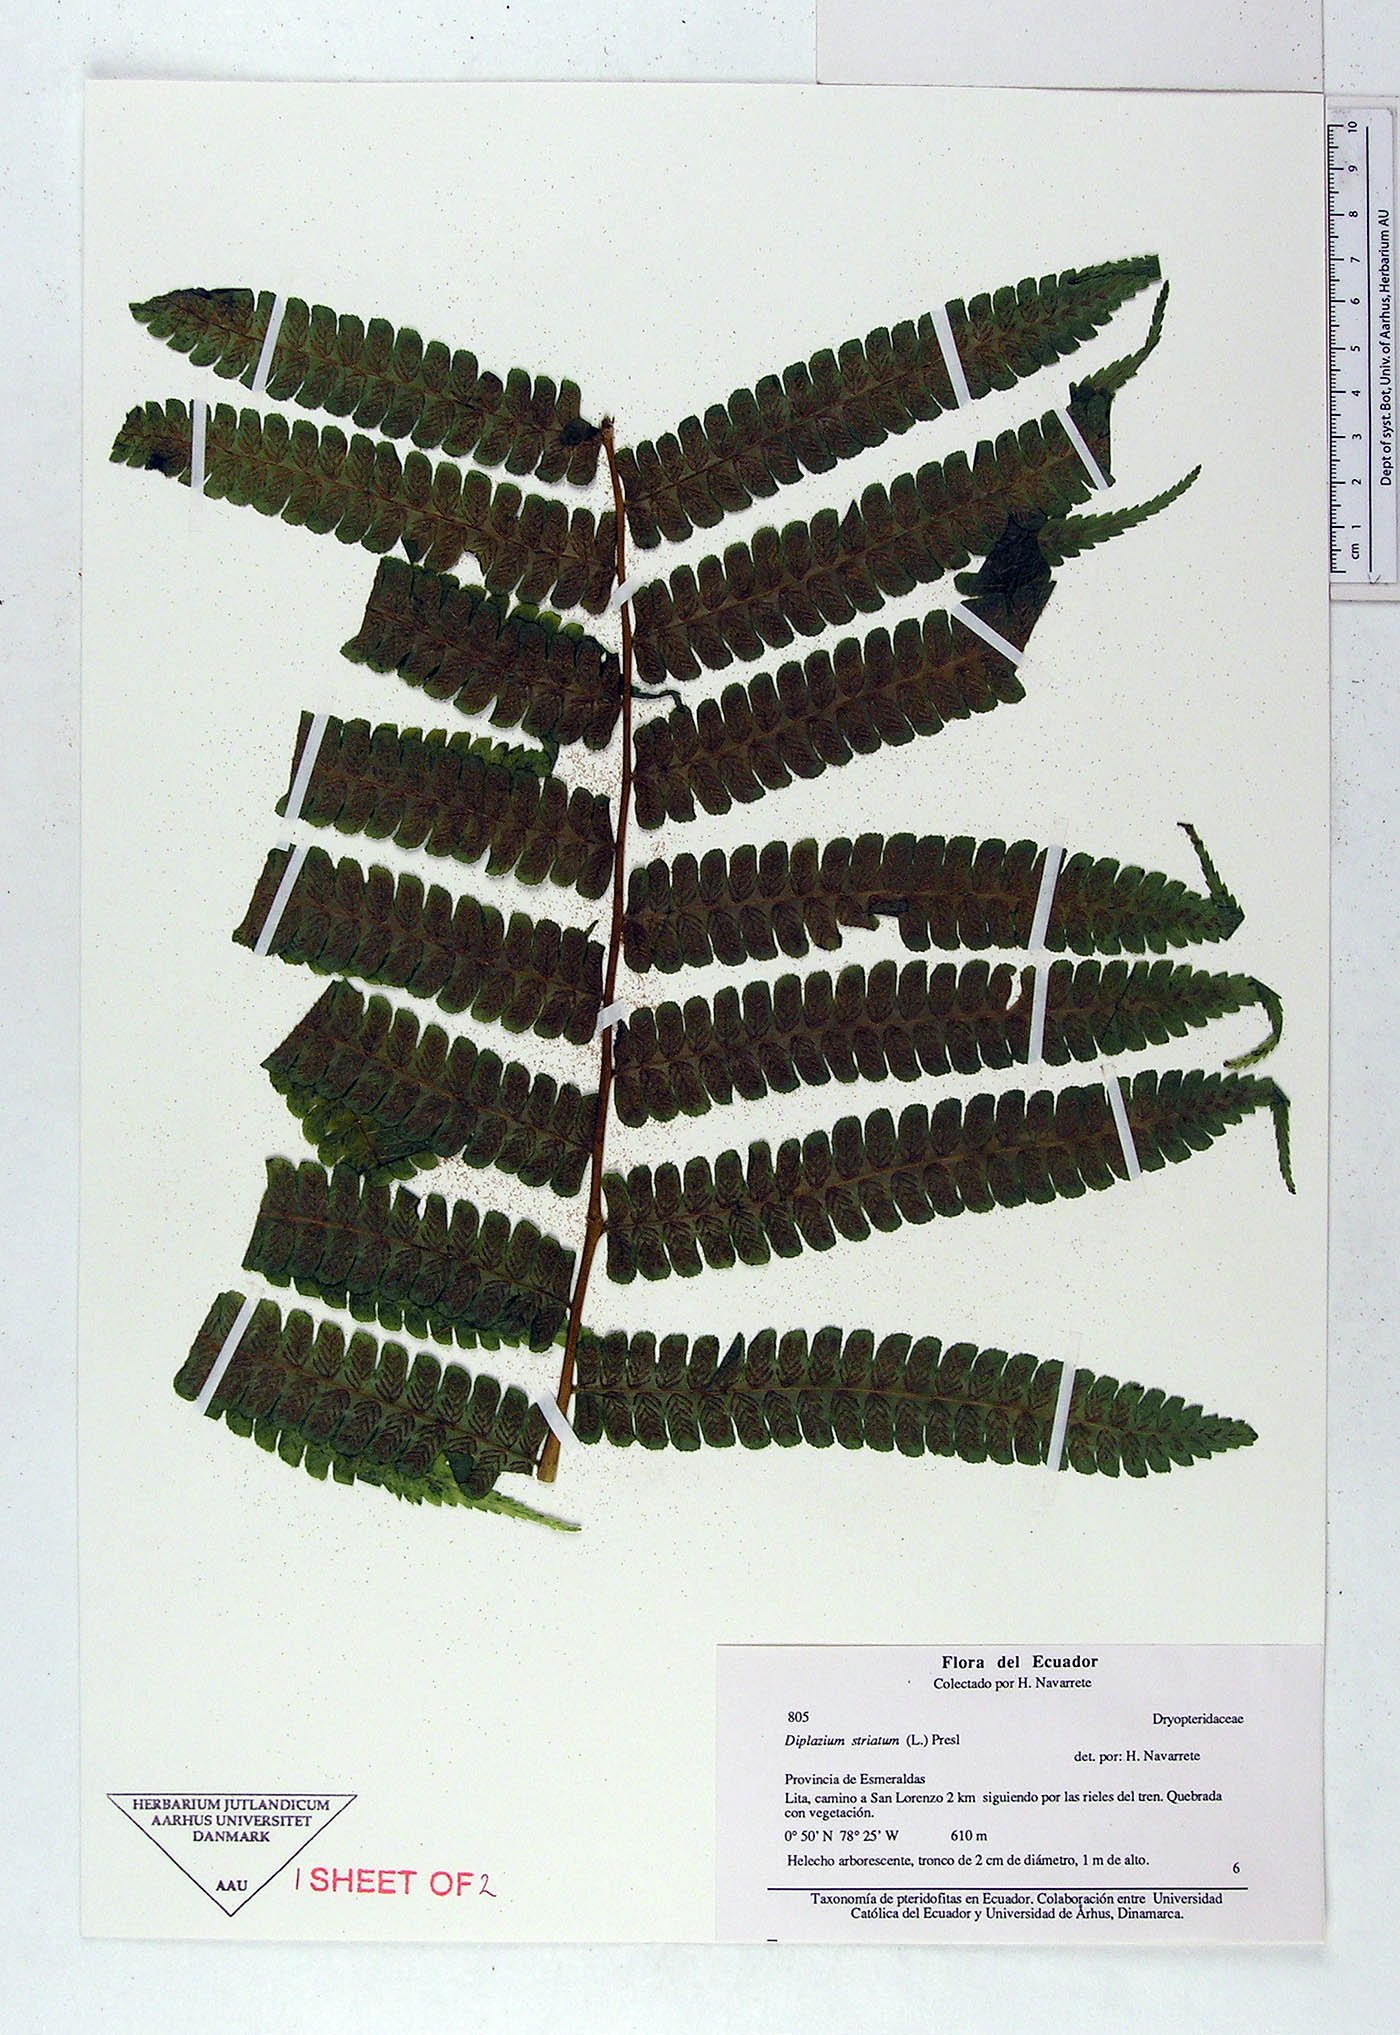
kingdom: Plantae
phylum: Tracheophyta
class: Polypodiopsida
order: Polypodiales
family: Athyriaceae
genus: Diplazium
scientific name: Diplazium
